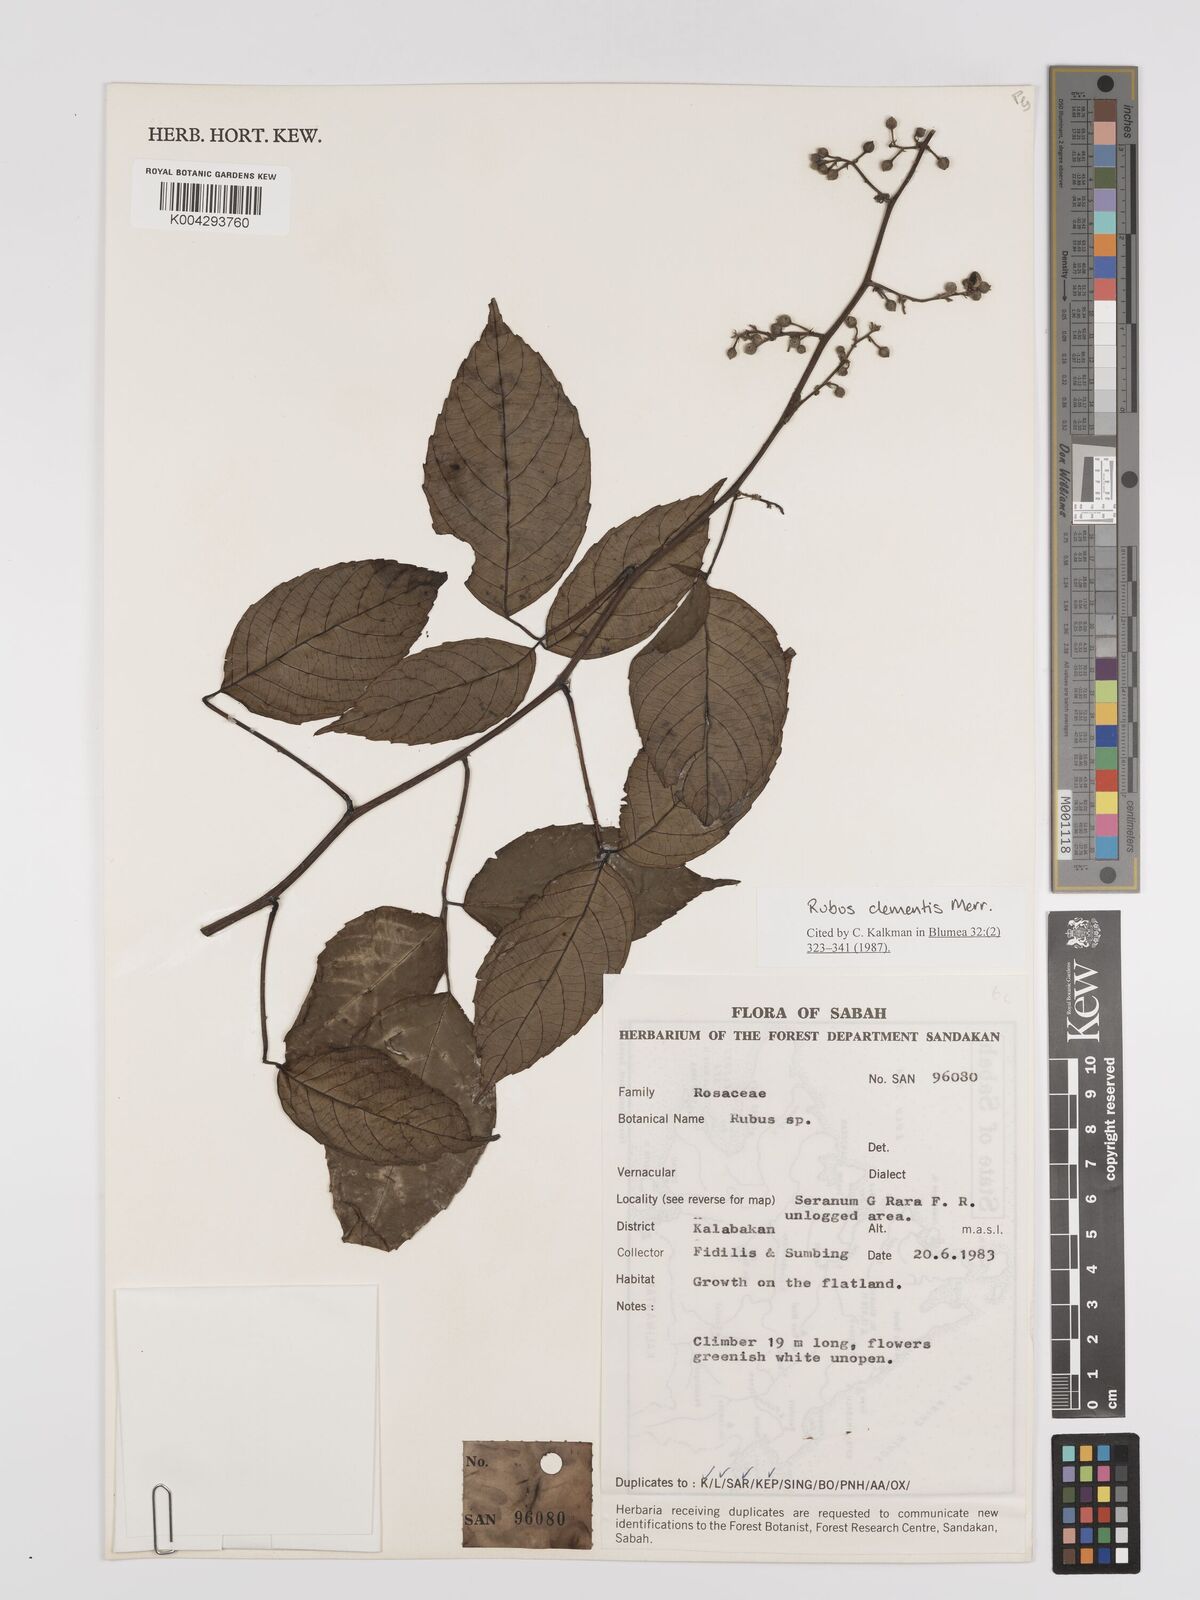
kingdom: Plantae
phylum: Tracheophyta
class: Magnoliopsida
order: Rosales
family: Rosaceae
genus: Rubus
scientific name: Rubus clementis
